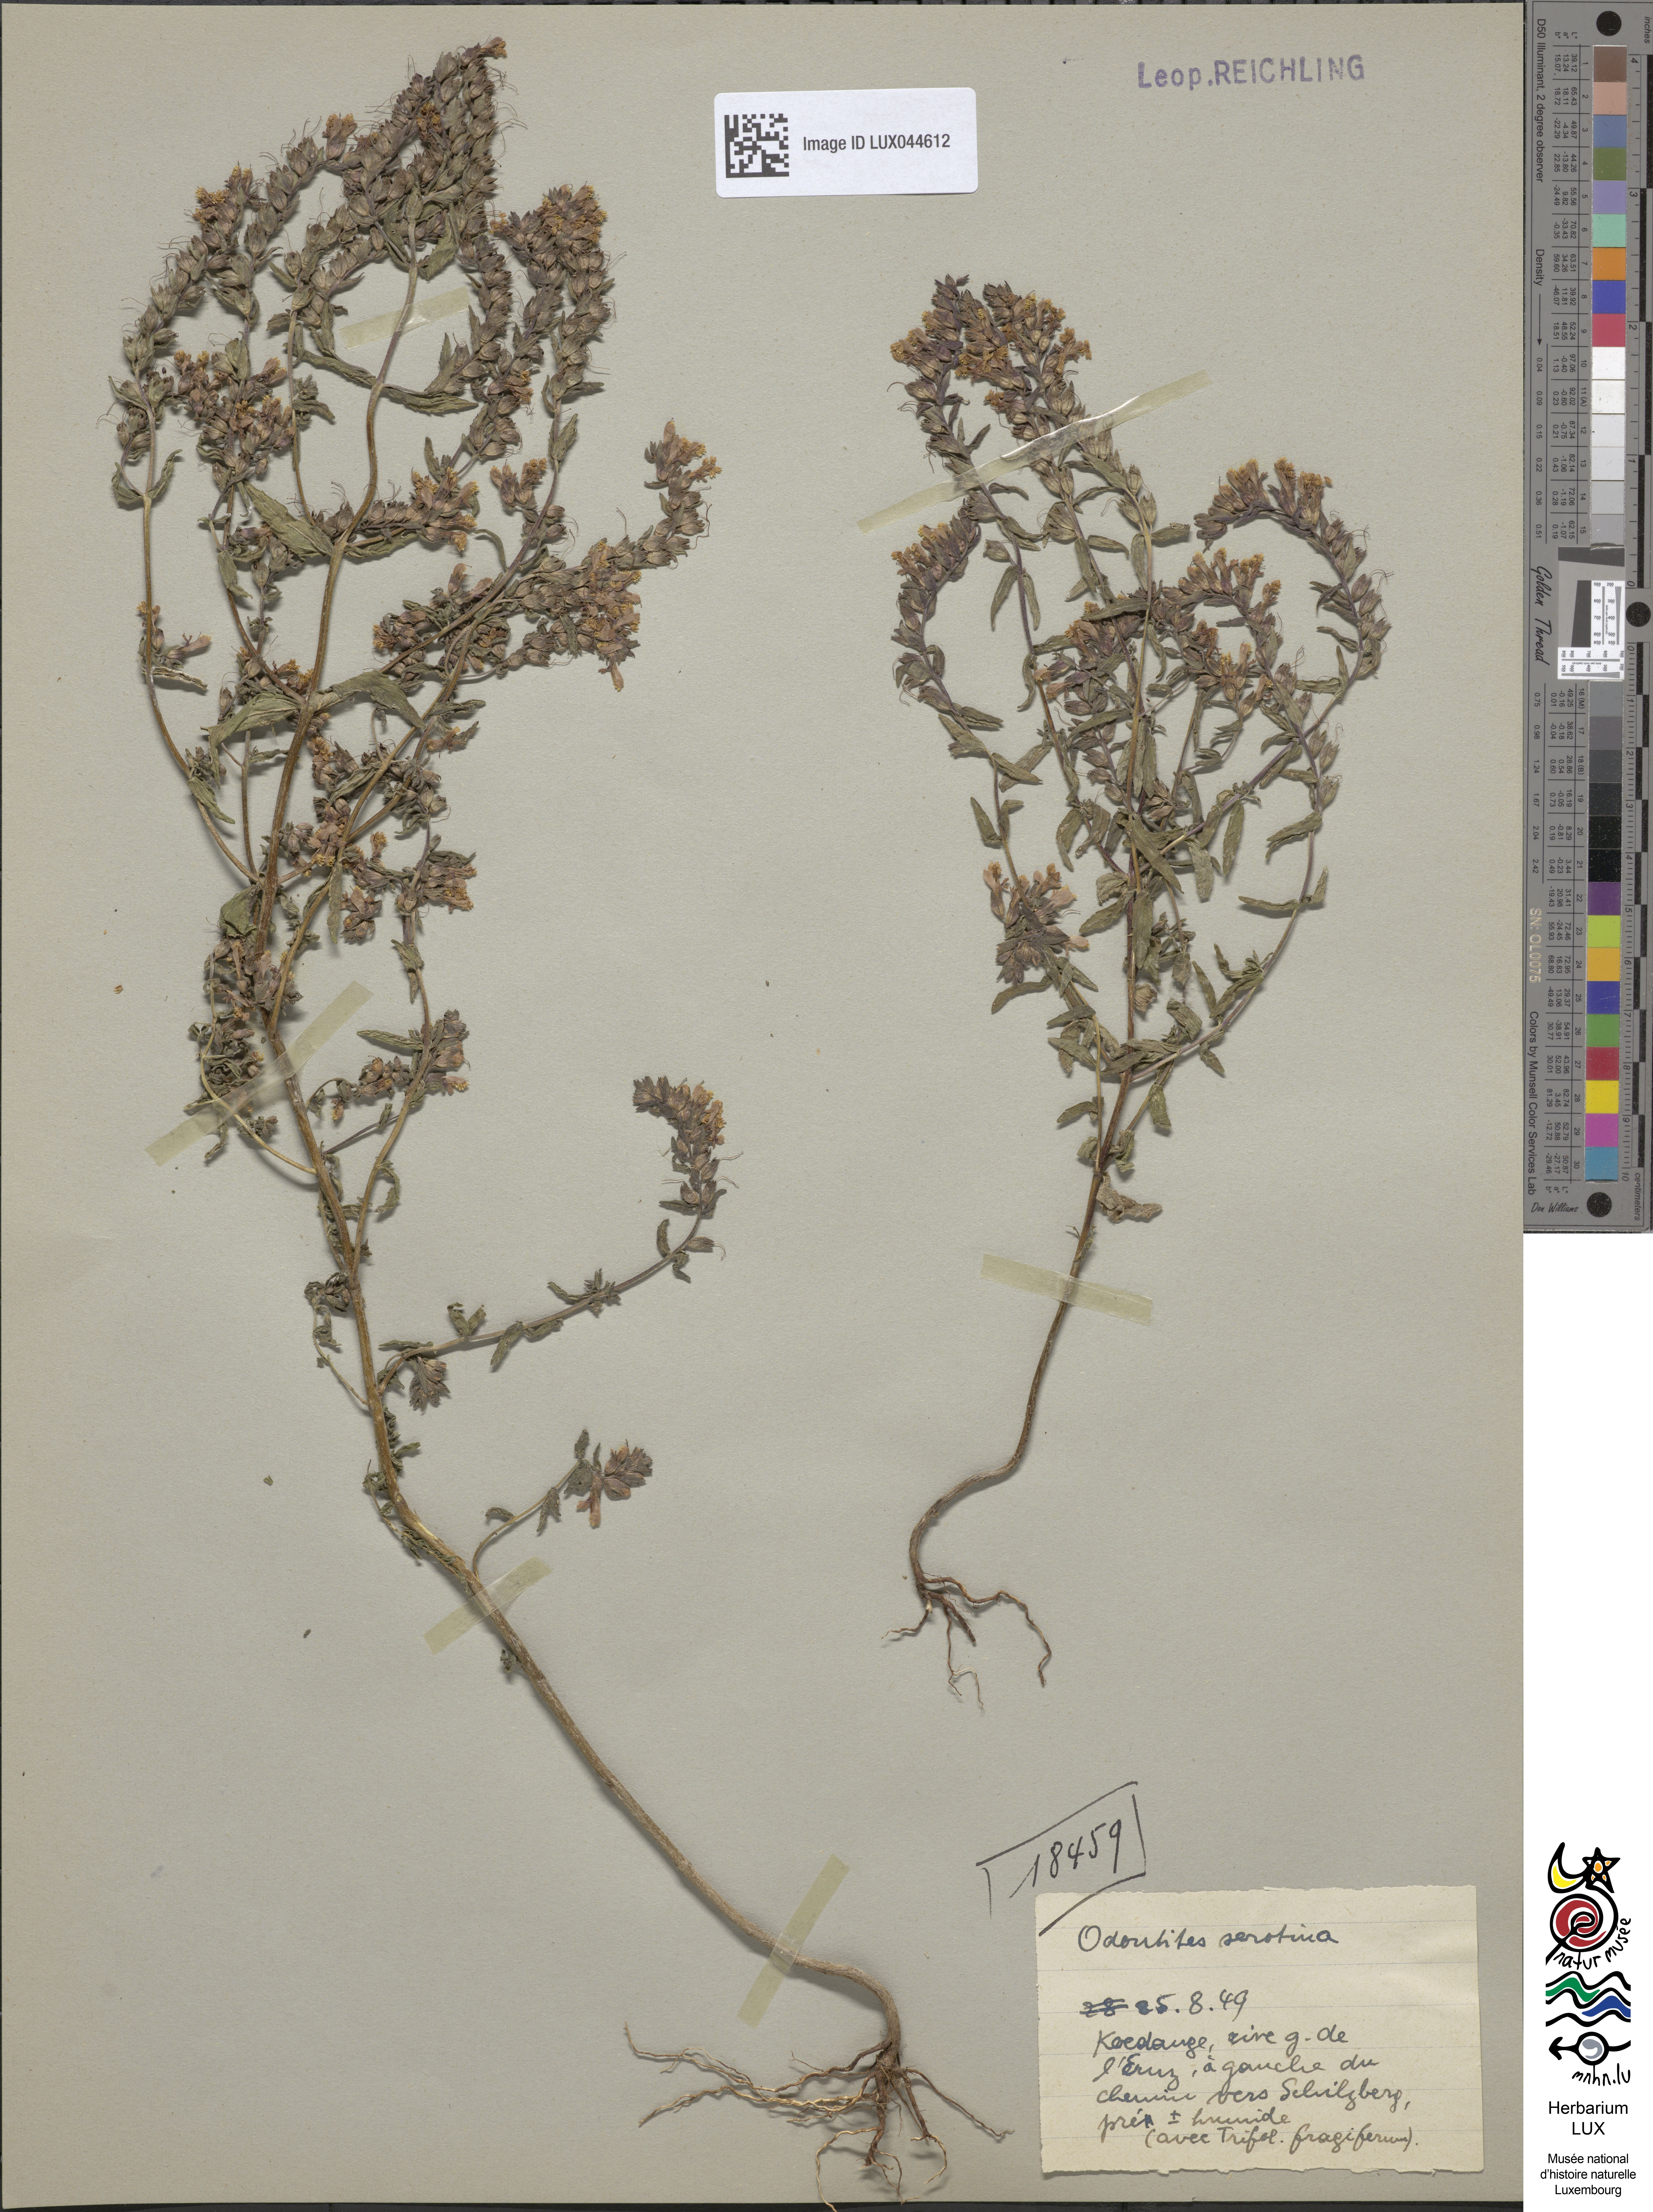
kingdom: Plantae
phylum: Tracheophyta
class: Magnoliopsida
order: Lamiales
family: Orobanchaceae
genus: Odontites
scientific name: Odontites vulgaris
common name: Broomrape
